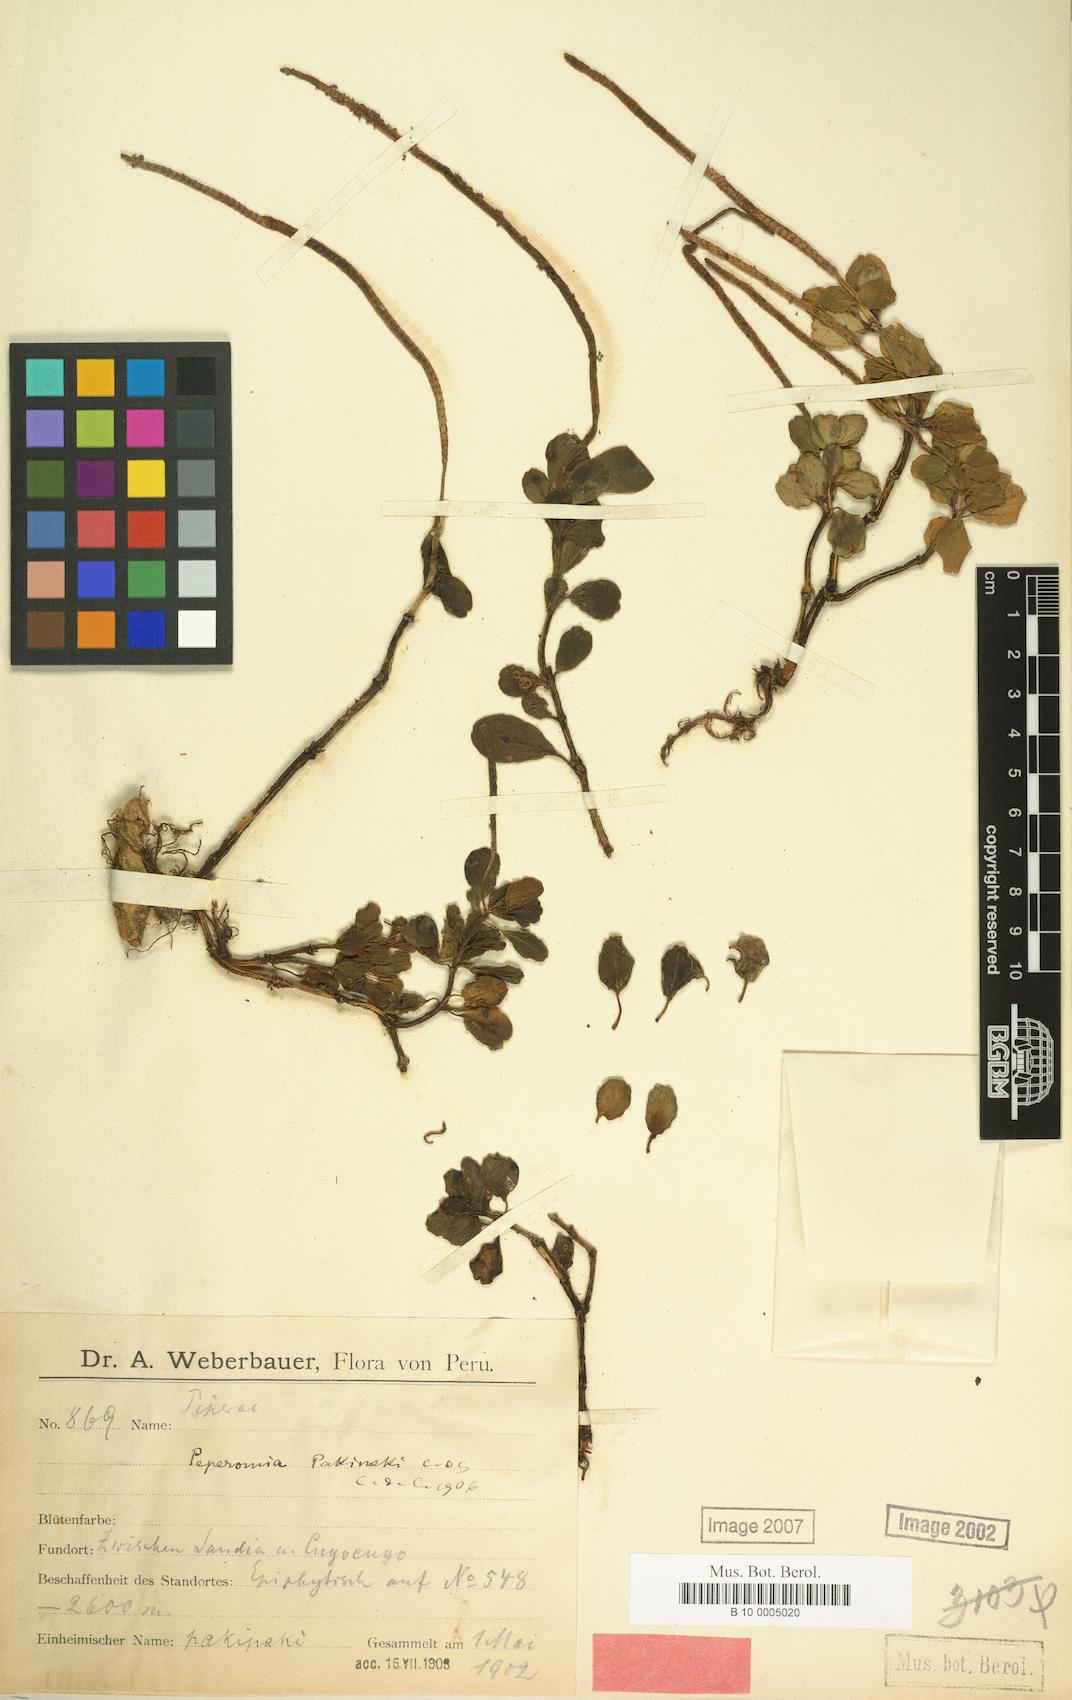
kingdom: Plantae
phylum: Tracheophyta
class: Magnoliopsida
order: Piperales
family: Piperaceae
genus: Peperomia
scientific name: Peperomia pakipski
